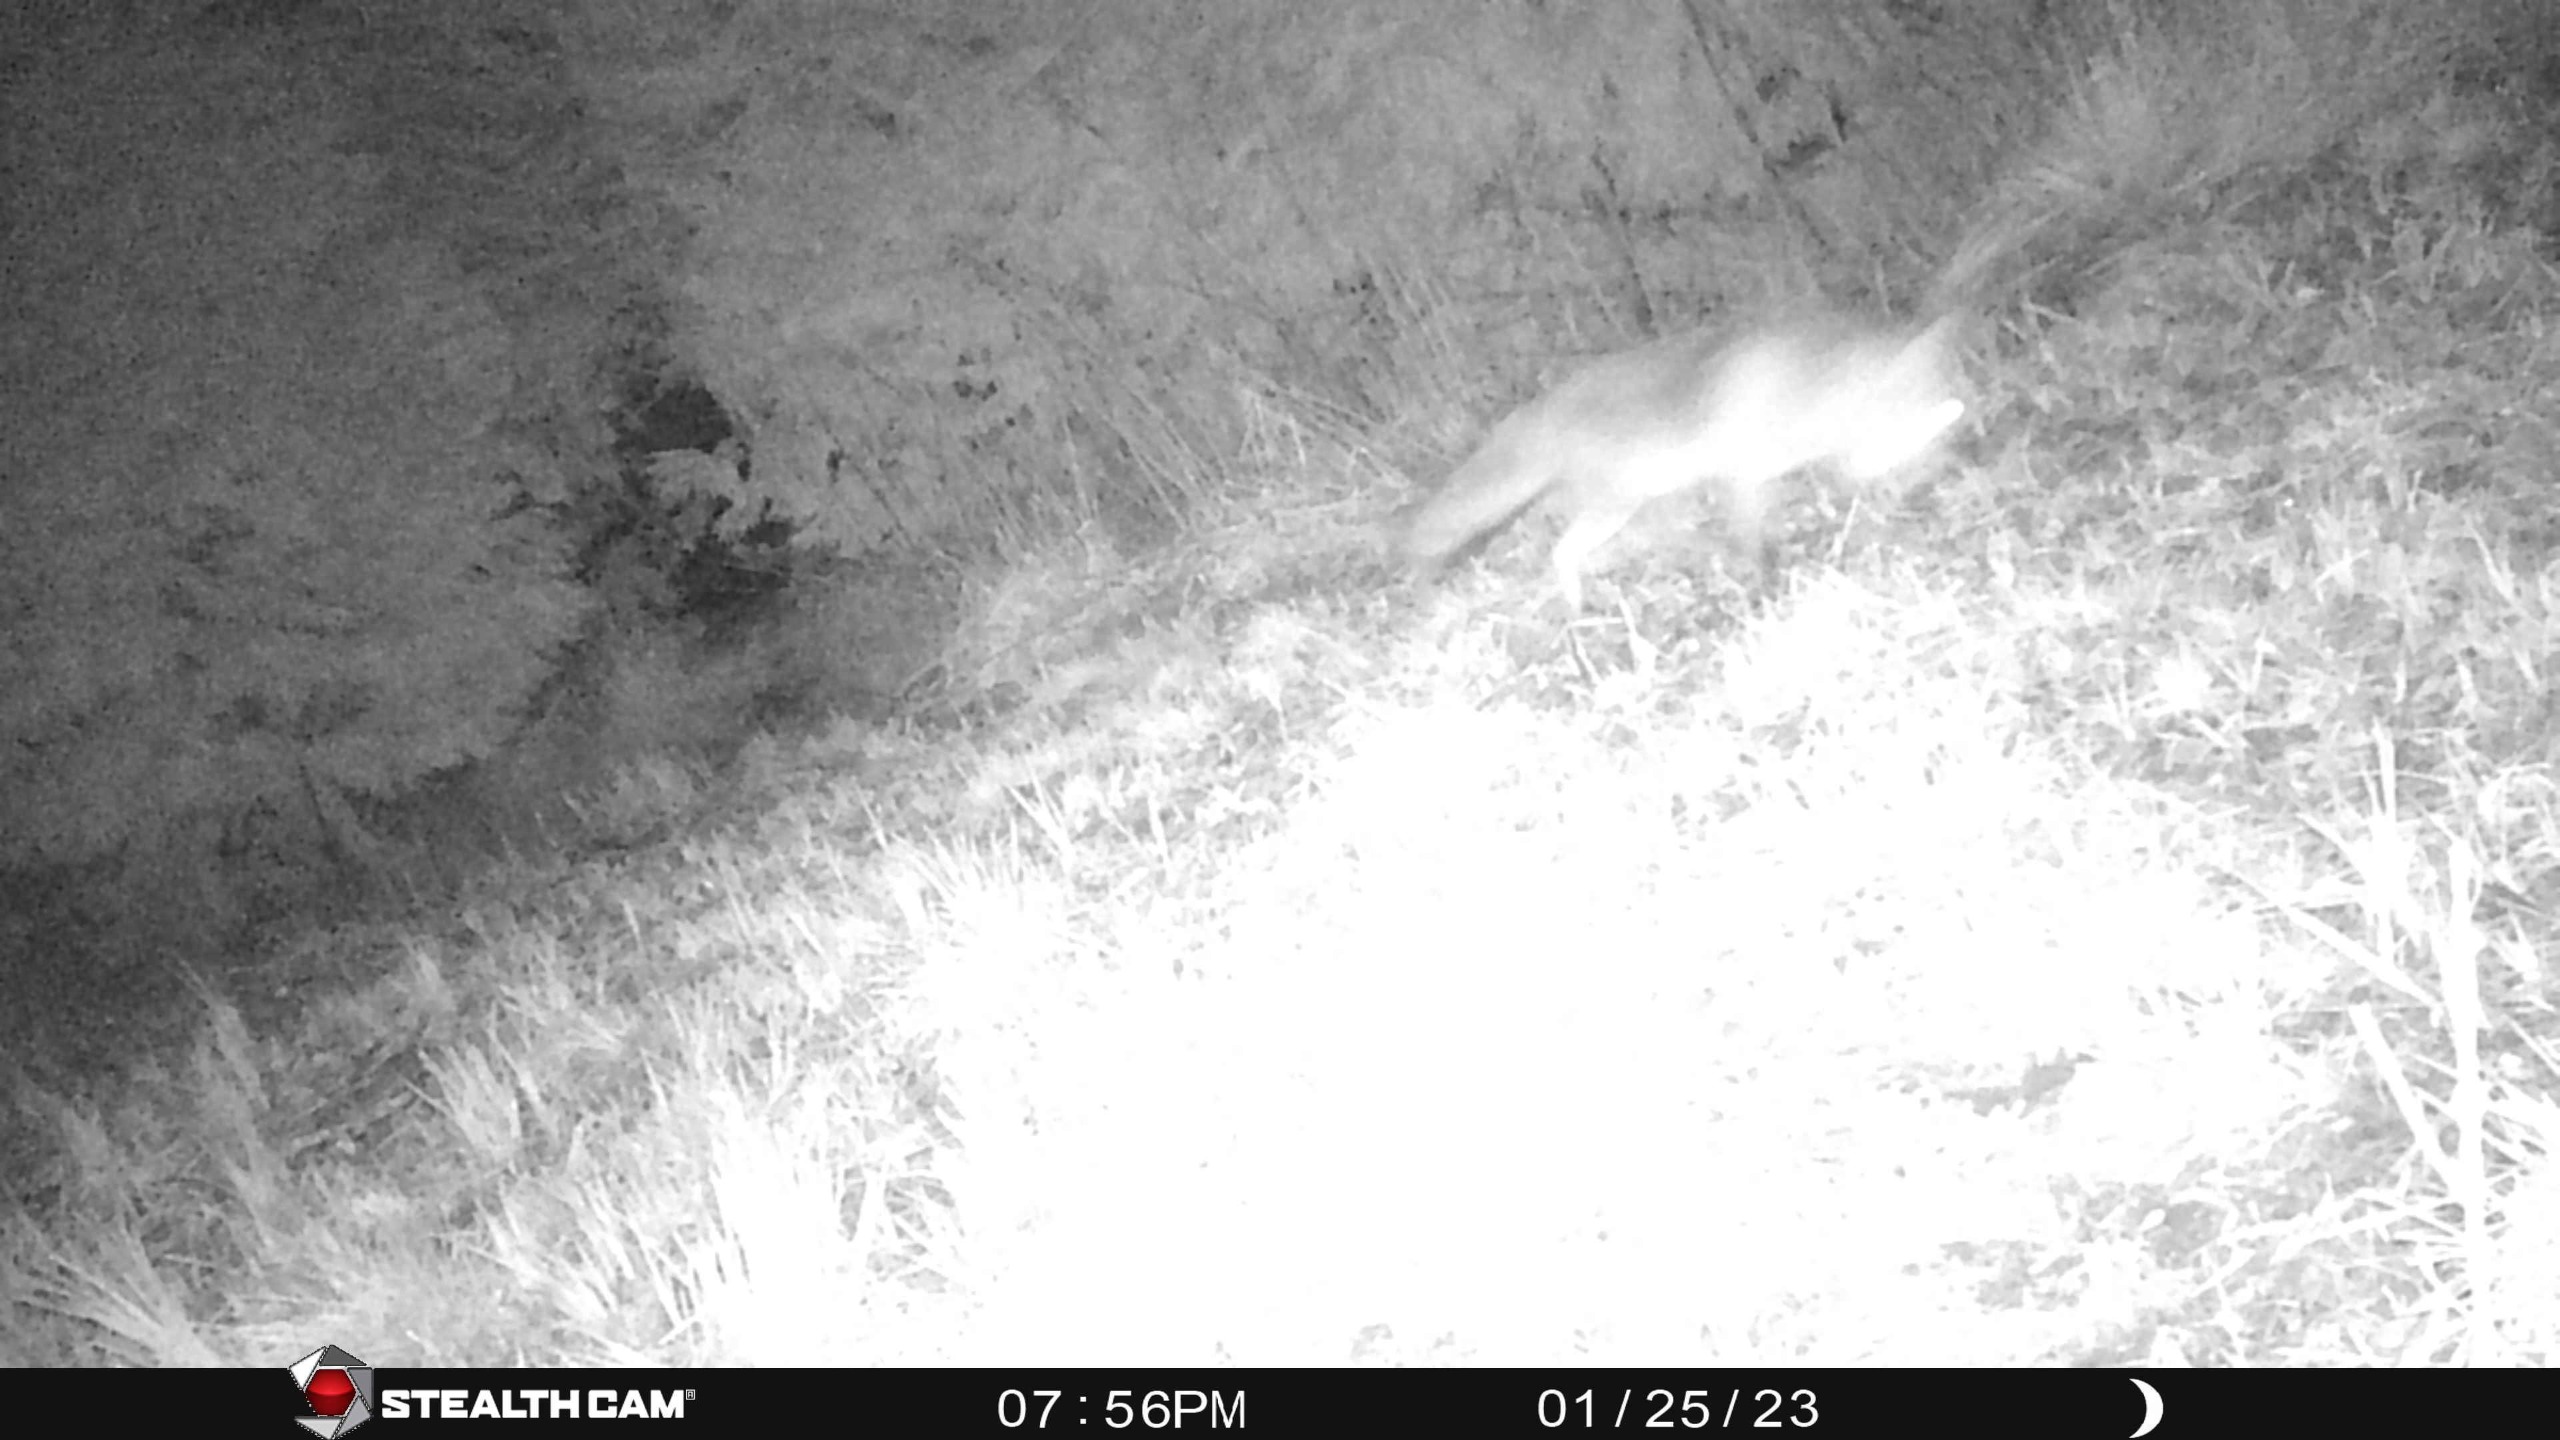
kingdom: Animalia
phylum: Chordata
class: Mammalia
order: Carnivora
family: Canidae
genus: Vulpes
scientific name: Vulpes vulpes
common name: Ræv
